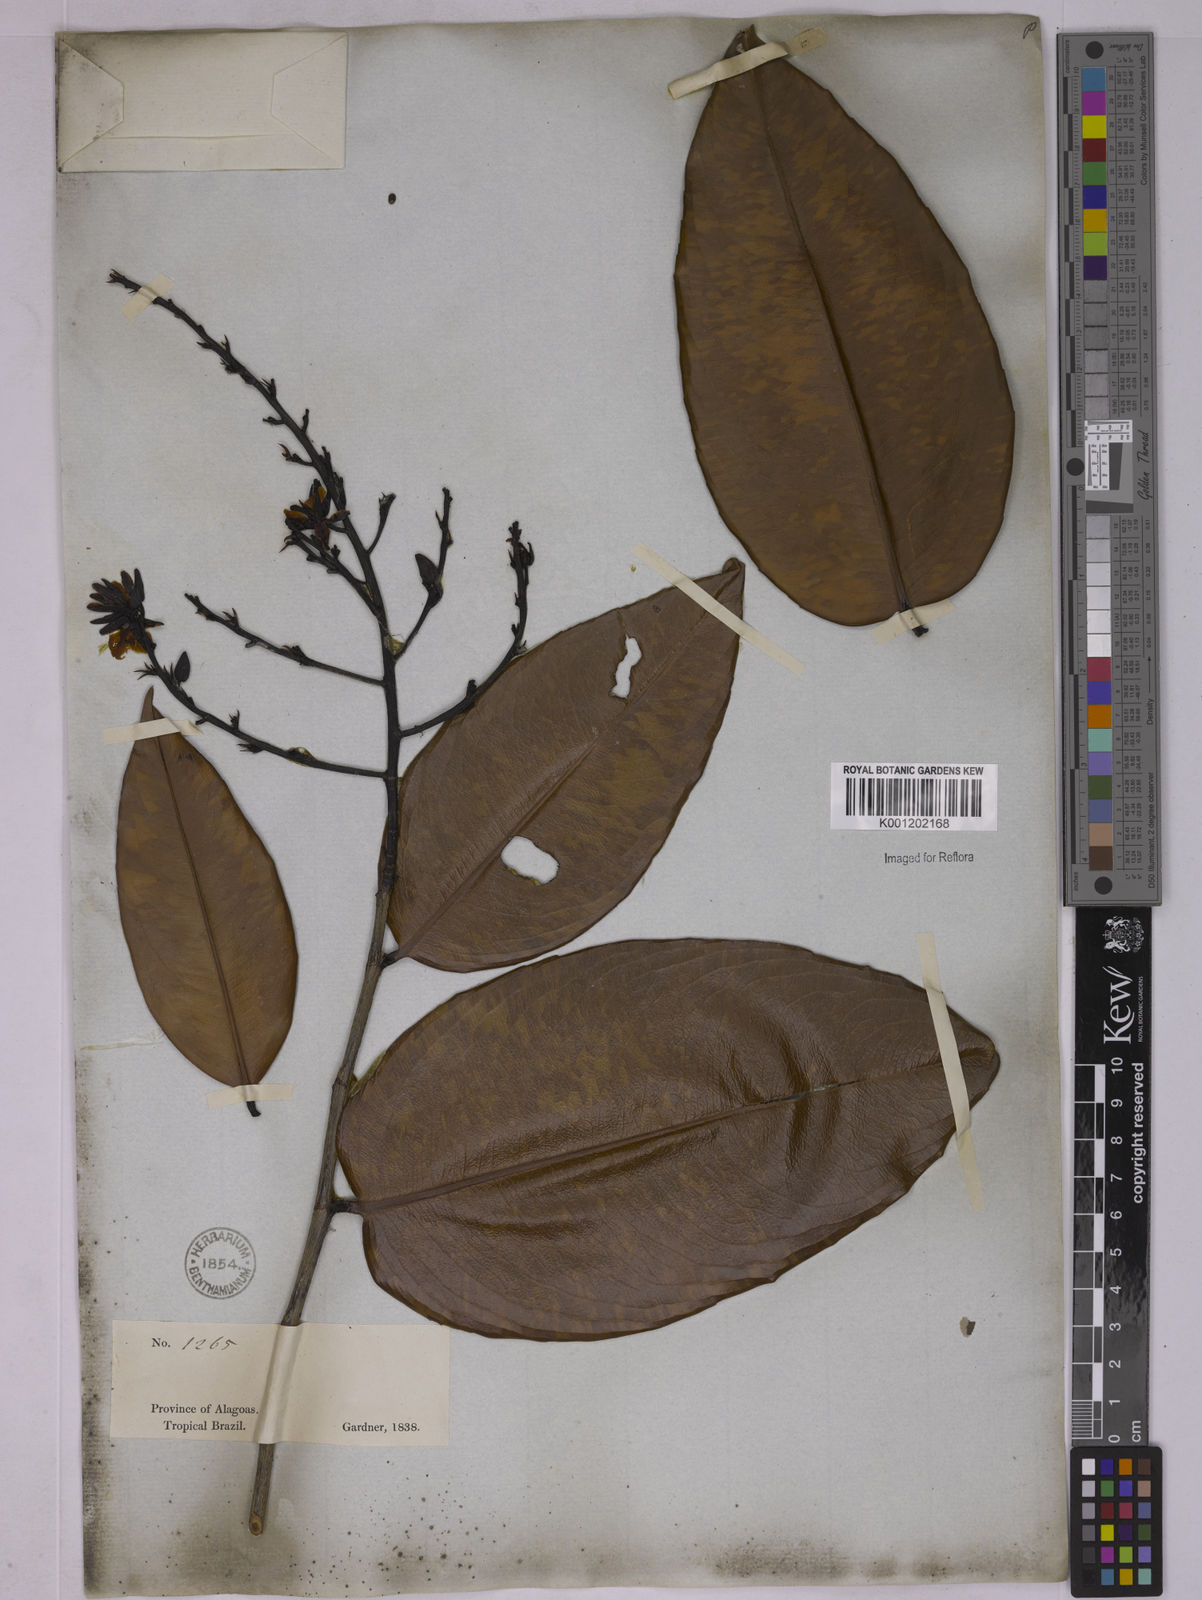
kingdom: Plantae
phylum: Tracheophyta
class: Magnoliopsida
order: Malpighiales
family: Ochnaceae
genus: Ouratea
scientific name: Ouratea
